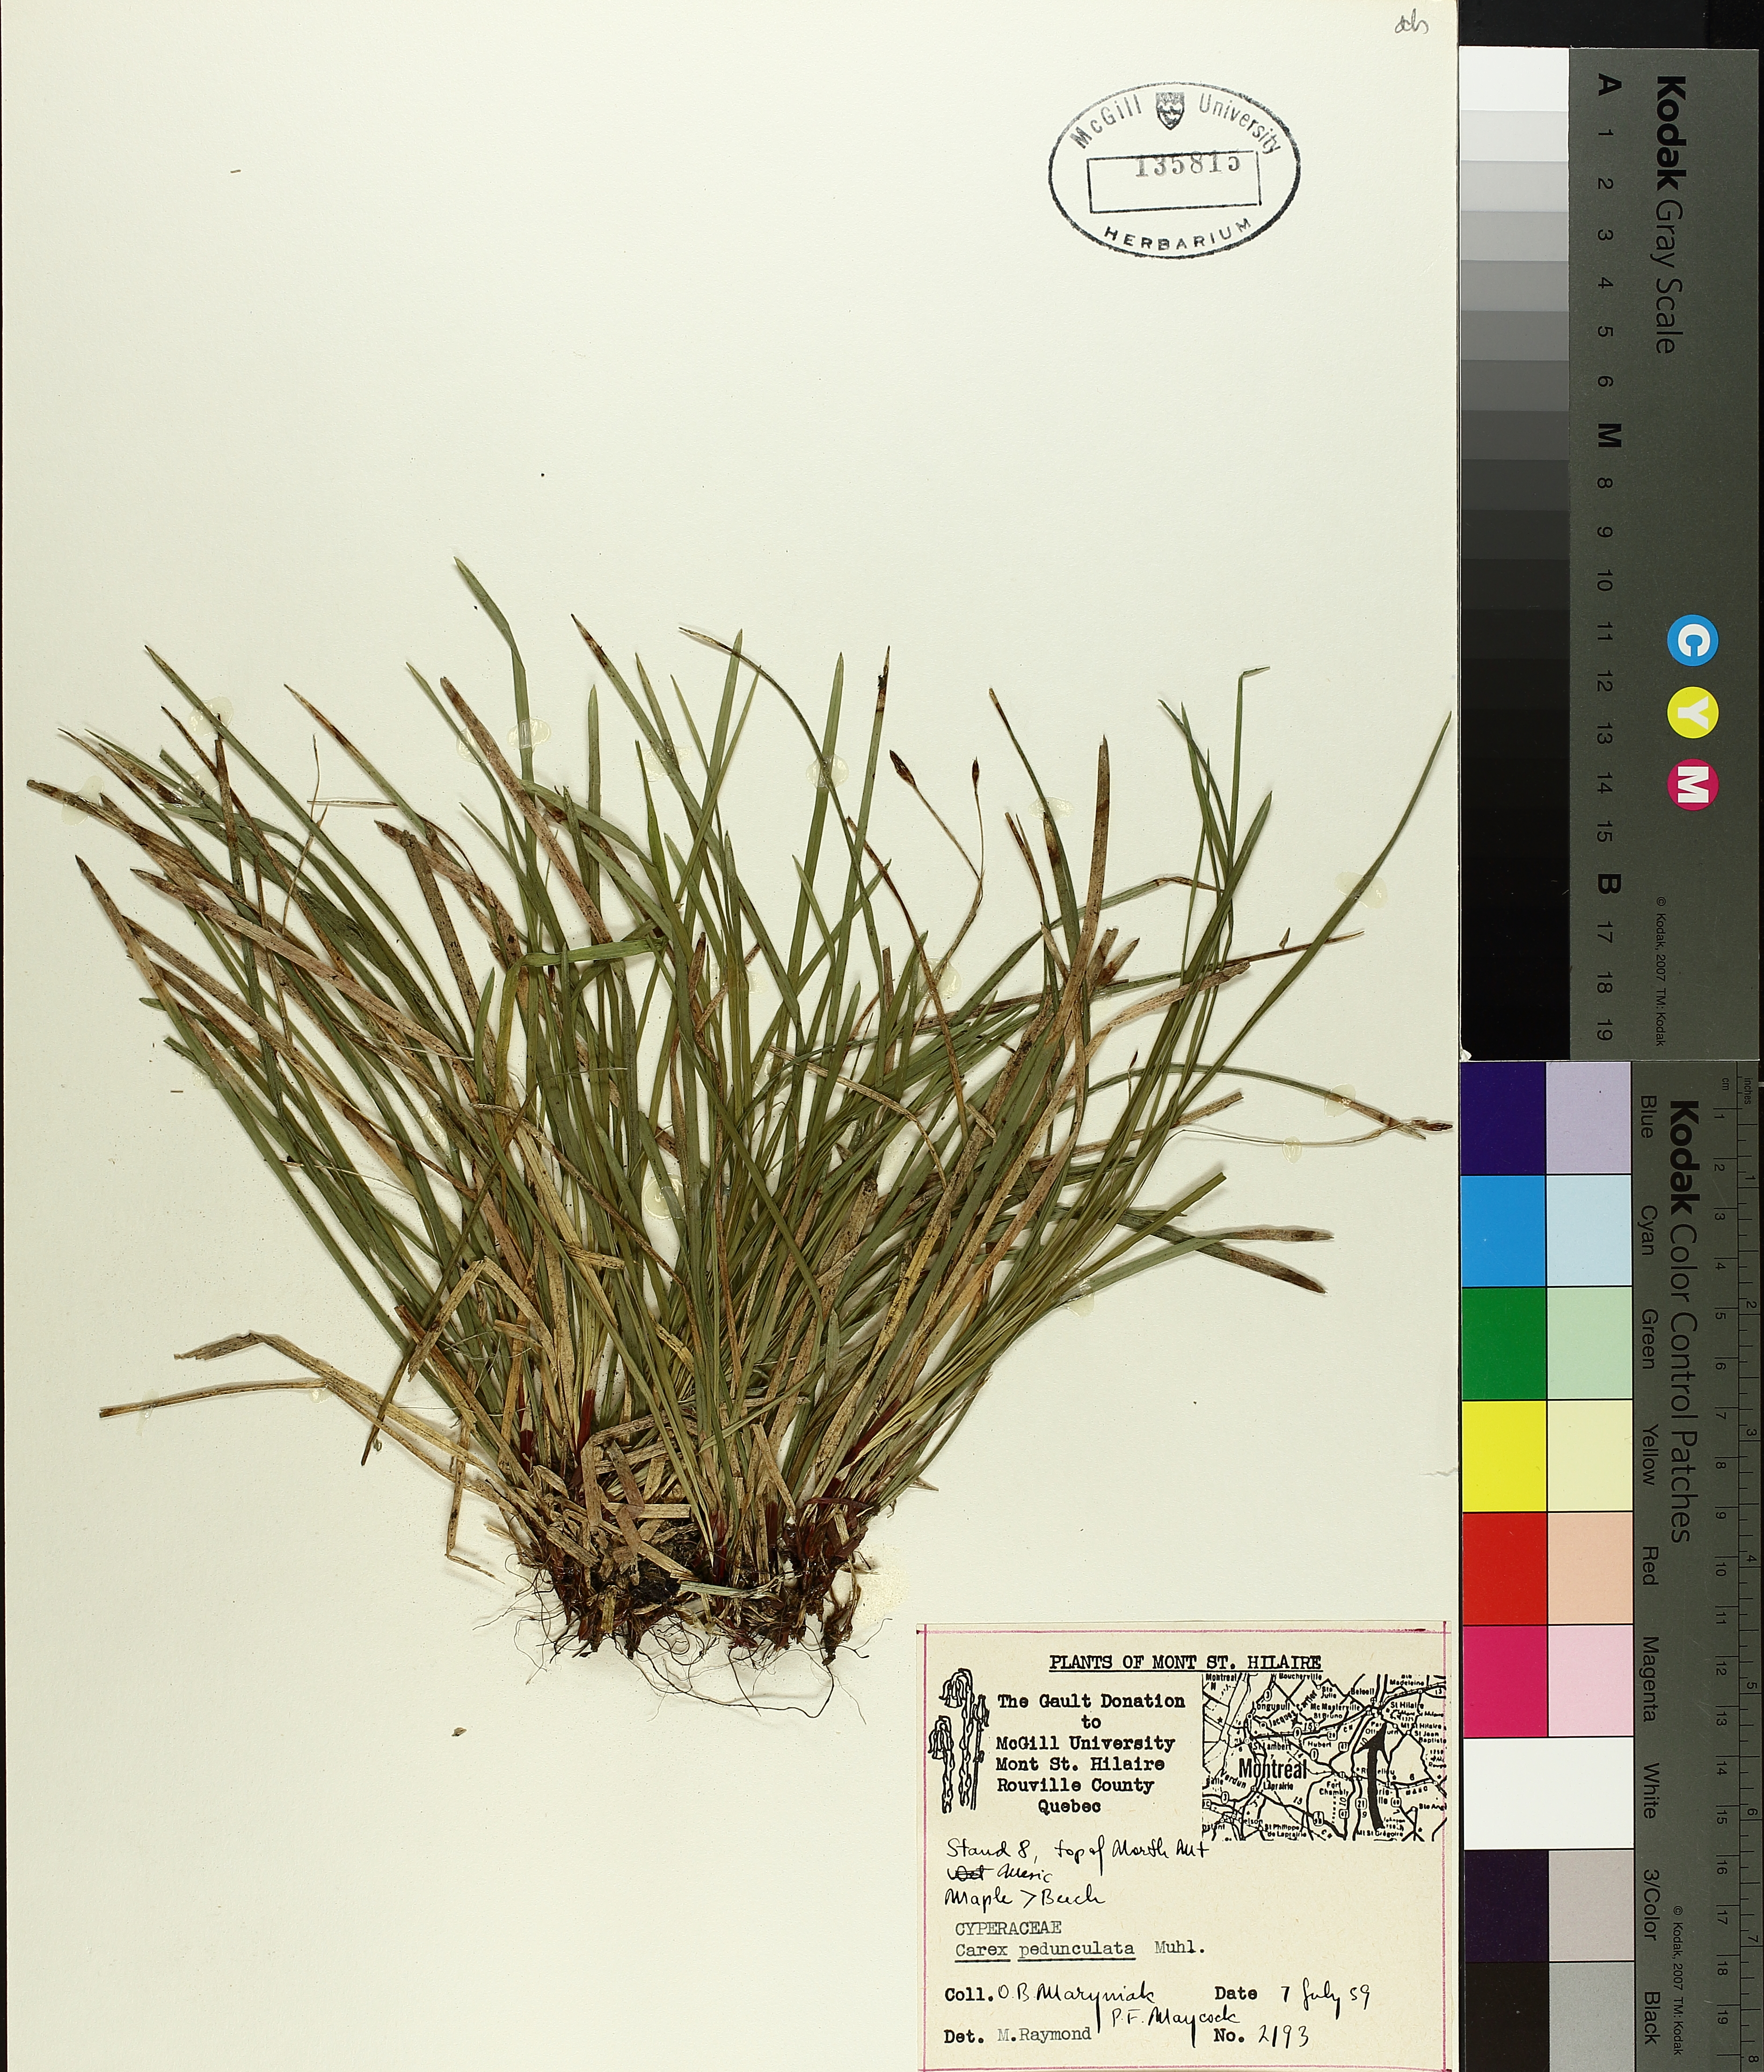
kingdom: Plantae
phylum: Tracheophyta
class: Liliopsida
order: Poales
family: Cyperaceae
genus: Carex
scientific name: Carex pedunculata
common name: Pedunculate sedge
